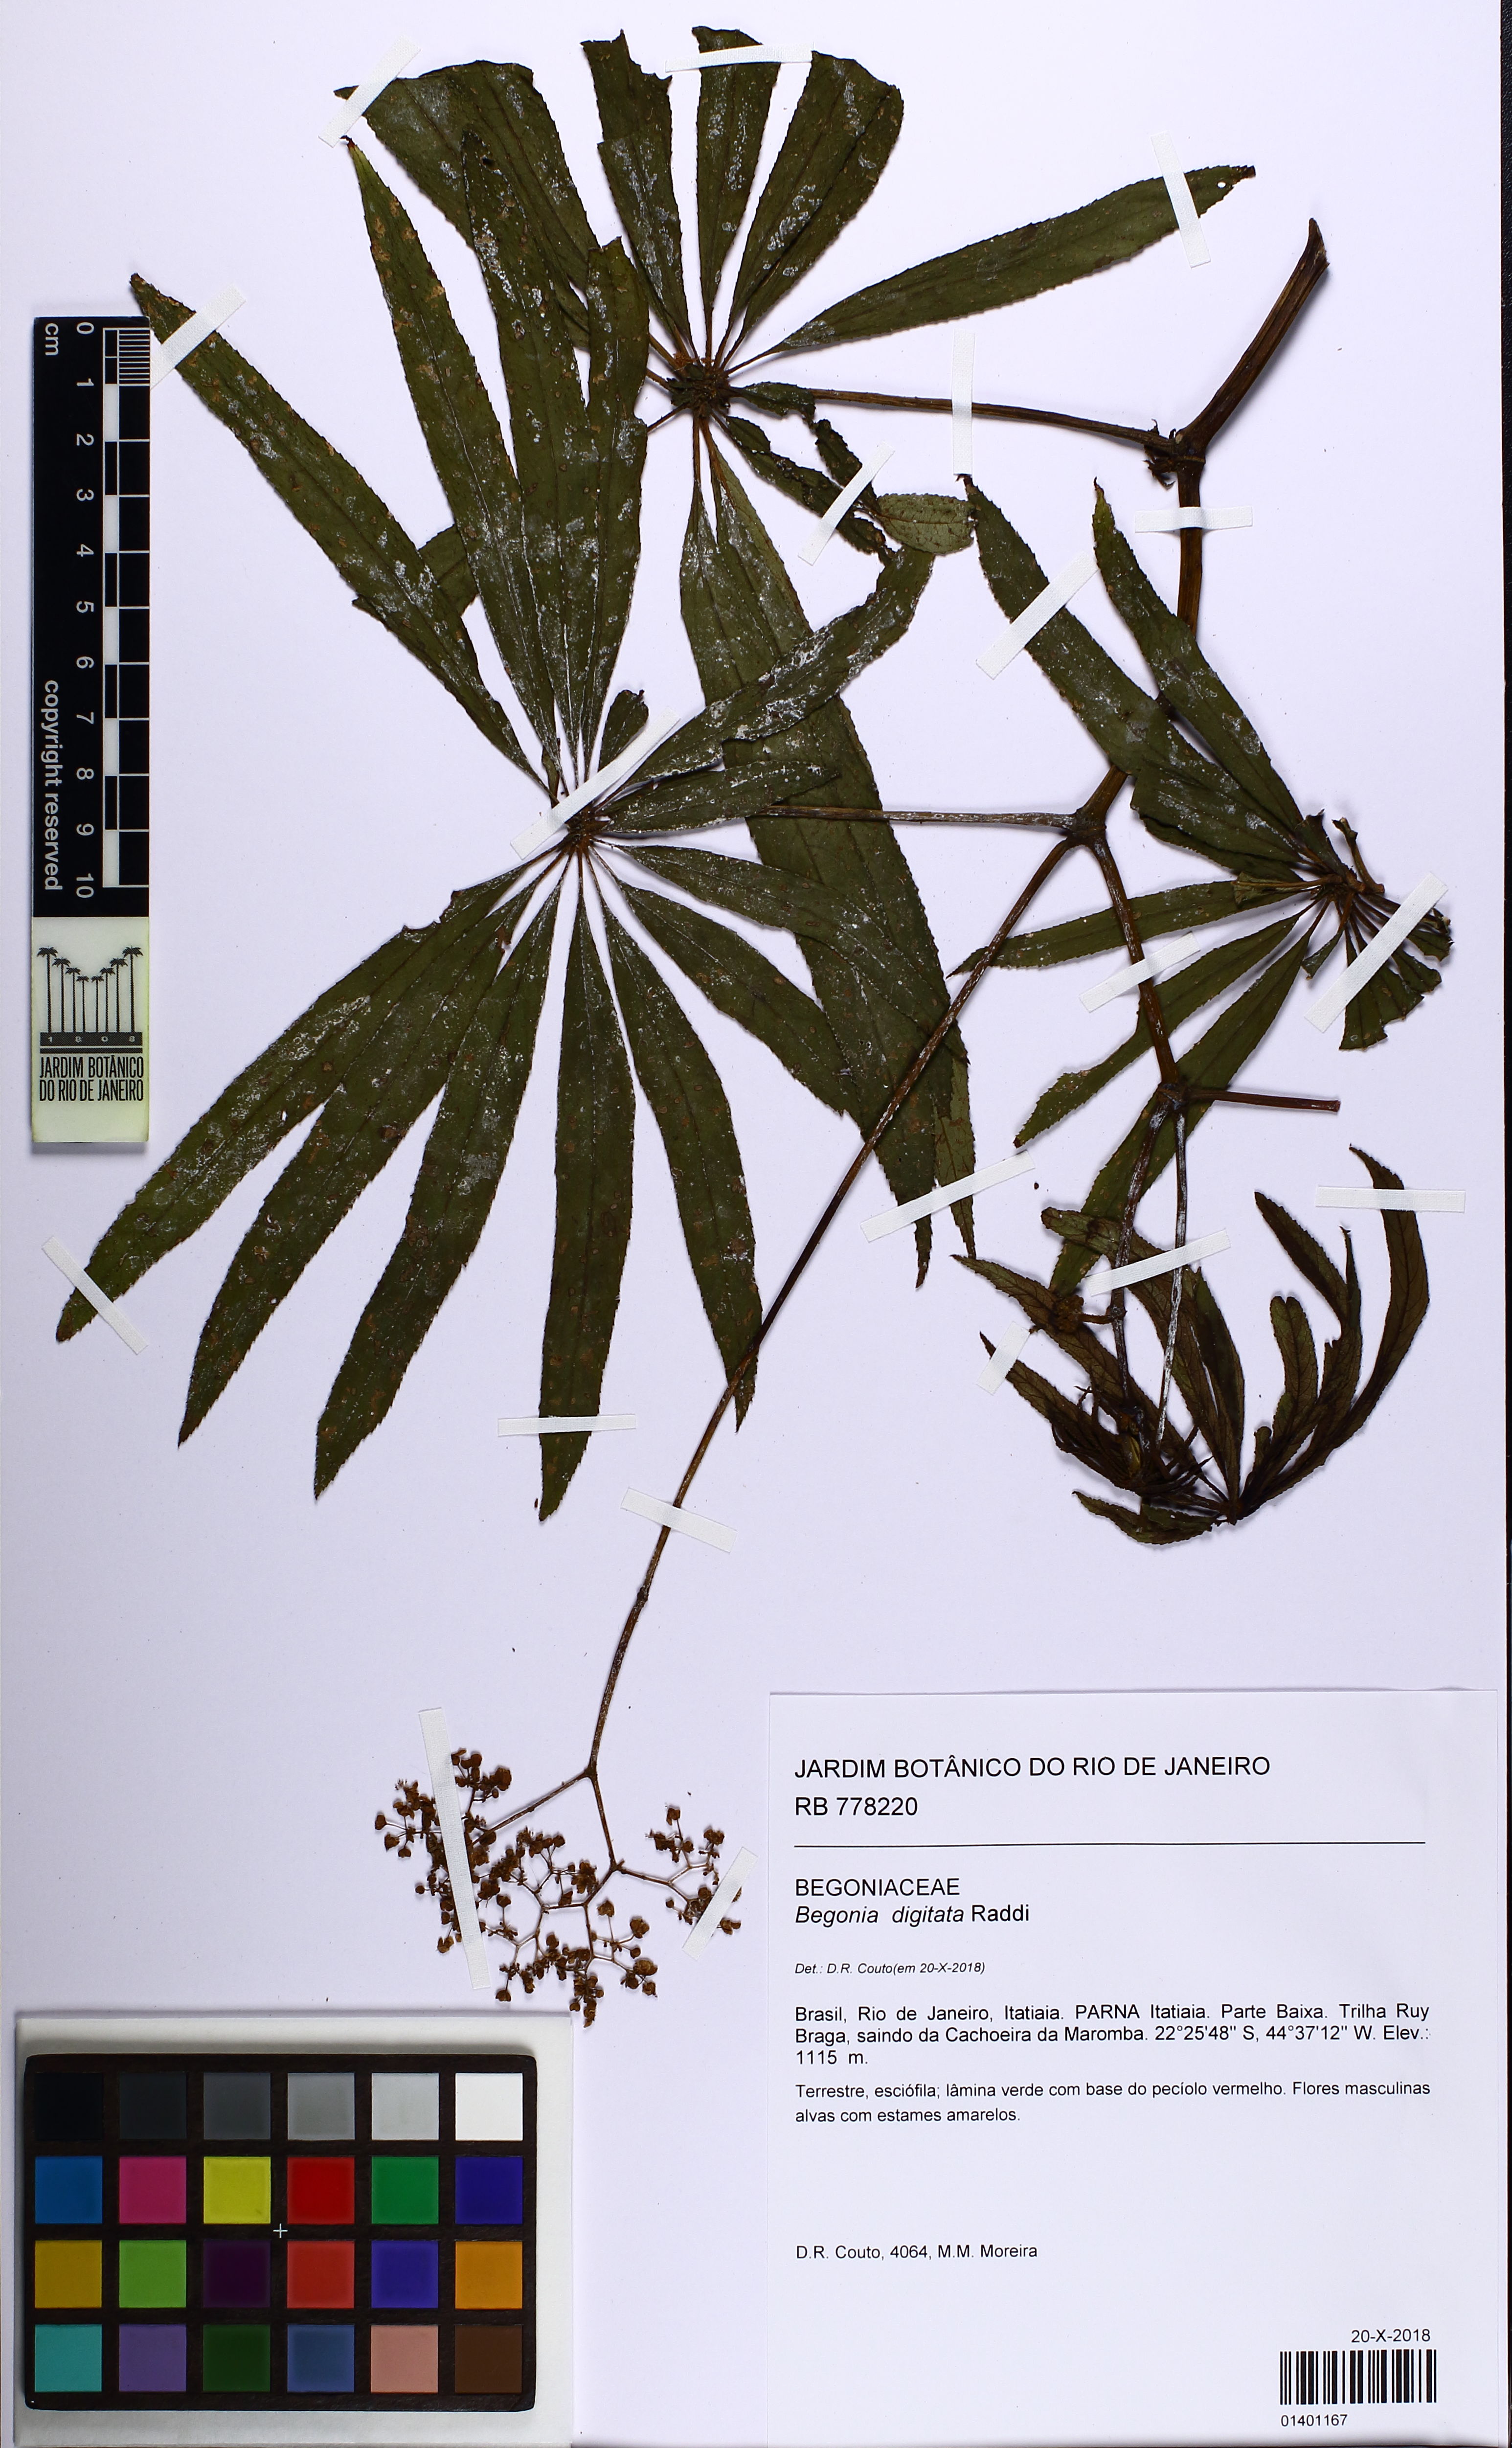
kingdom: Plantae
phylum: Tracheophyta
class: Magnoliopsida
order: Cucurbitales
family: Begoniaceae
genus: Begonia
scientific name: Begonia luxurians
